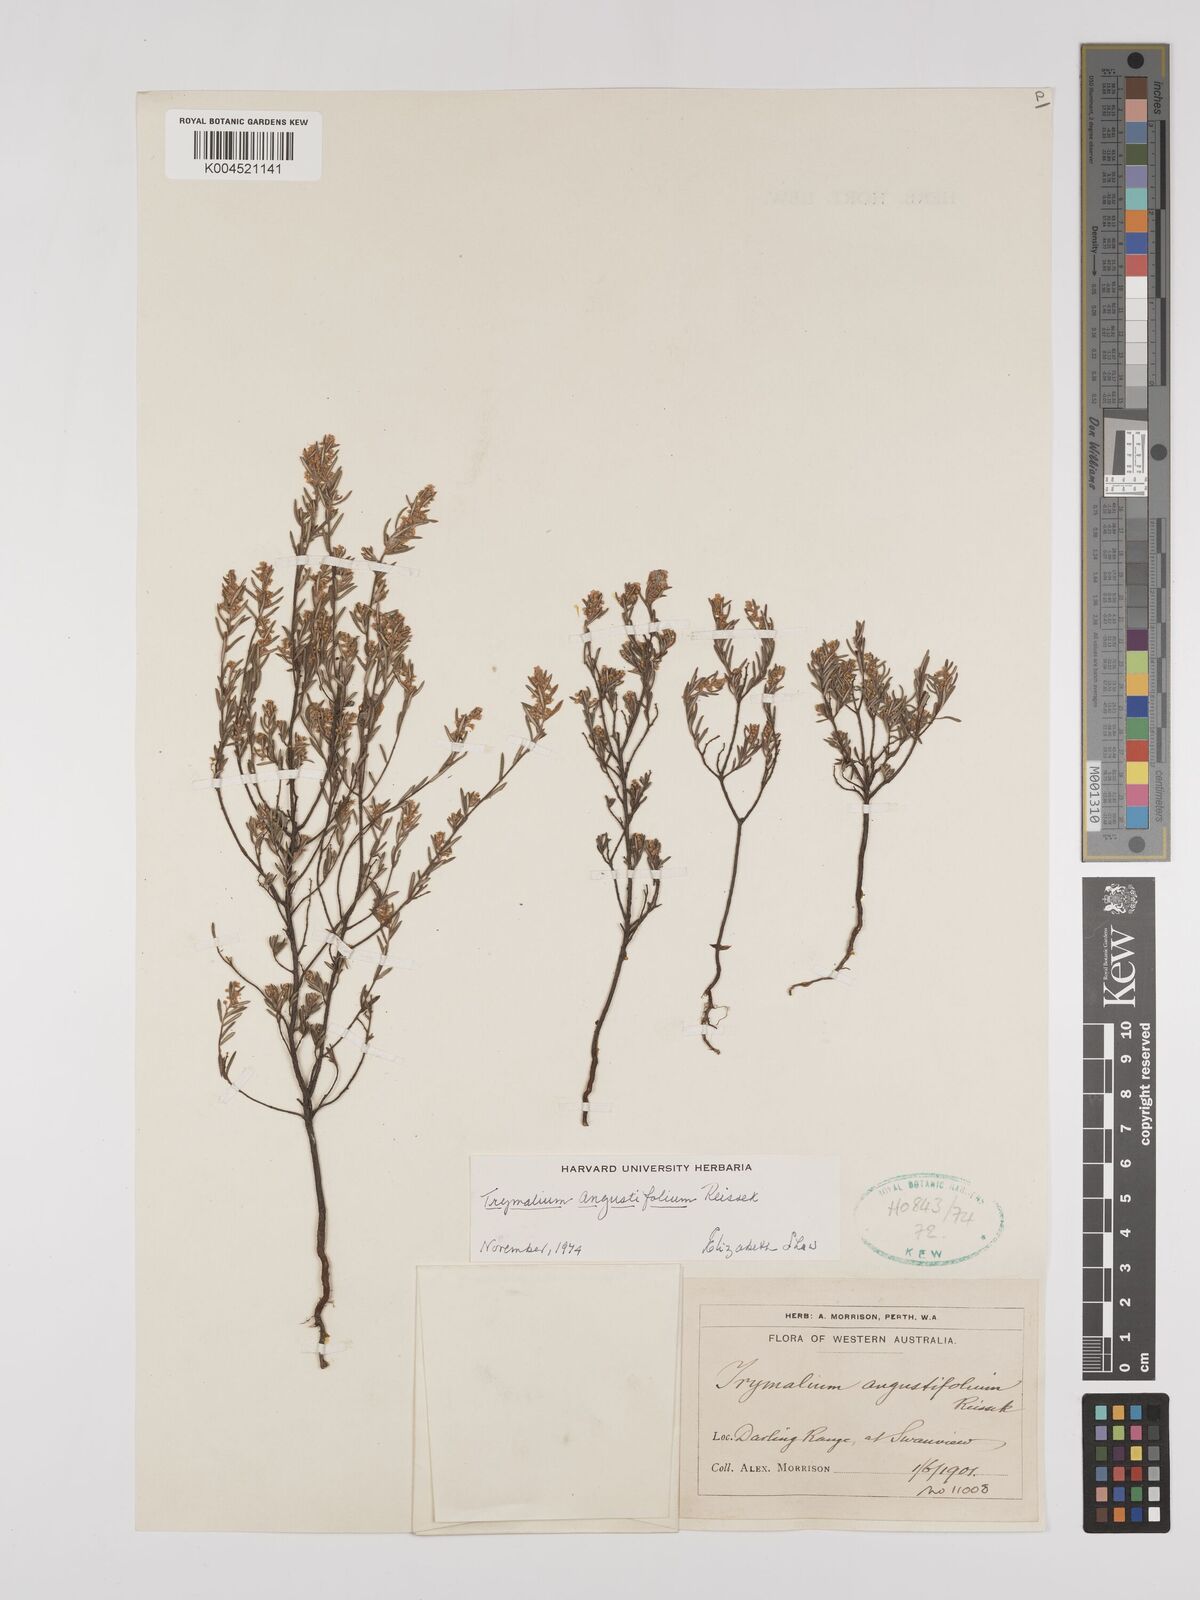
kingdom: Plantae
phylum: Tracheophyta
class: Magnoliopsida
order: Rosales
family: Rhamnaceae
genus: Trymalium
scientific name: Trymalium angustifolium
